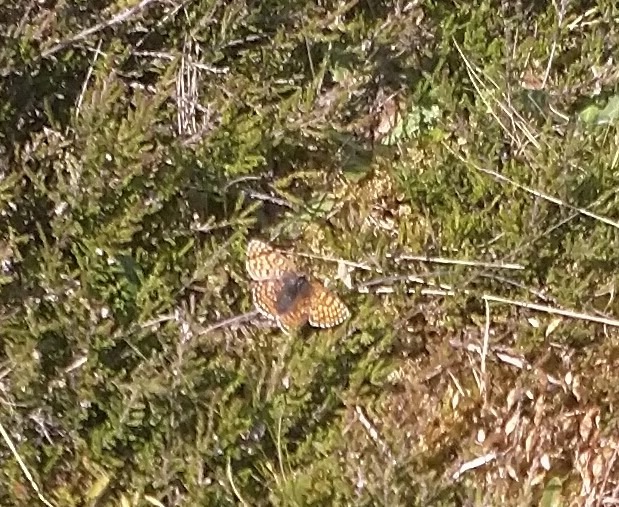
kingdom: Animalia
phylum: Arthropoda
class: Insecta
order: Lepidoptera
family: Nymphalidae
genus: Melitaea
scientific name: Melitaea cinxia
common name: Okkergul pletvinge
